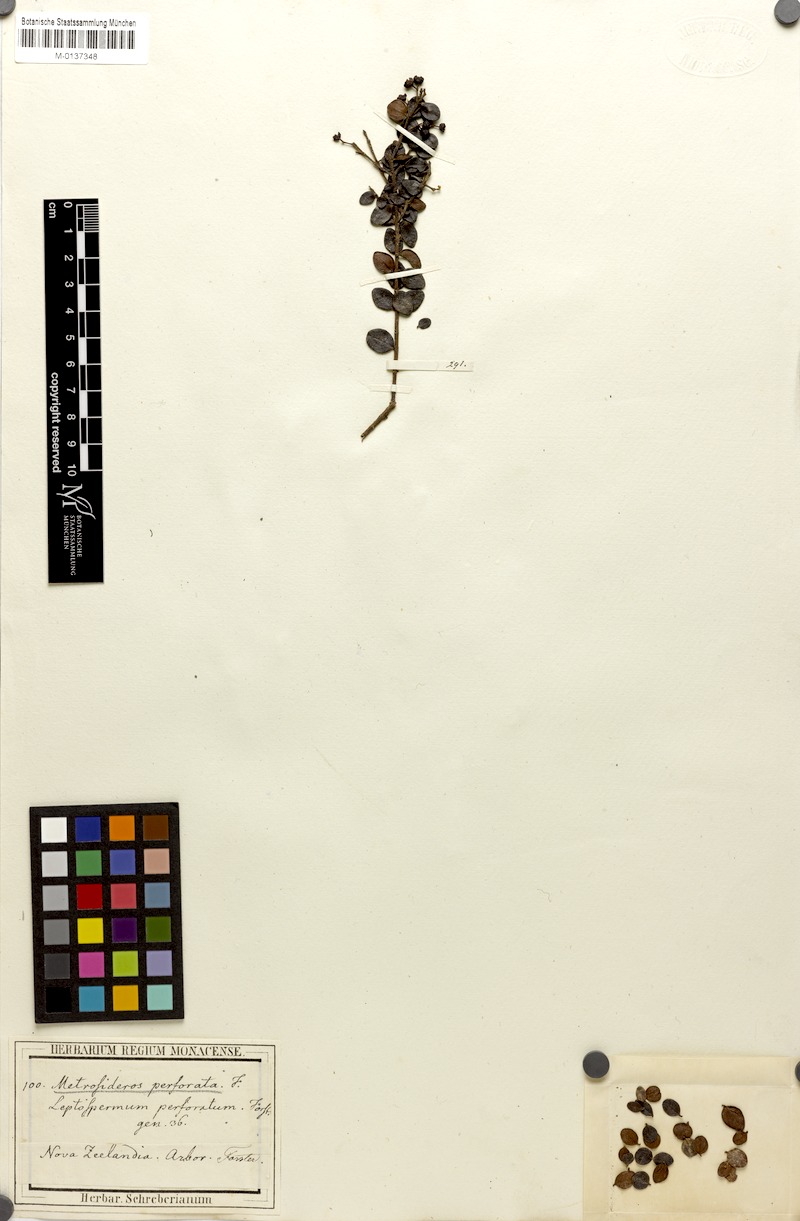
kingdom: Plantae
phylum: Tracheophyta
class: Magnoliopsida
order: Myrtales
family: Myrtaceae
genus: Metrosideros
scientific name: Metrosideros perforata
